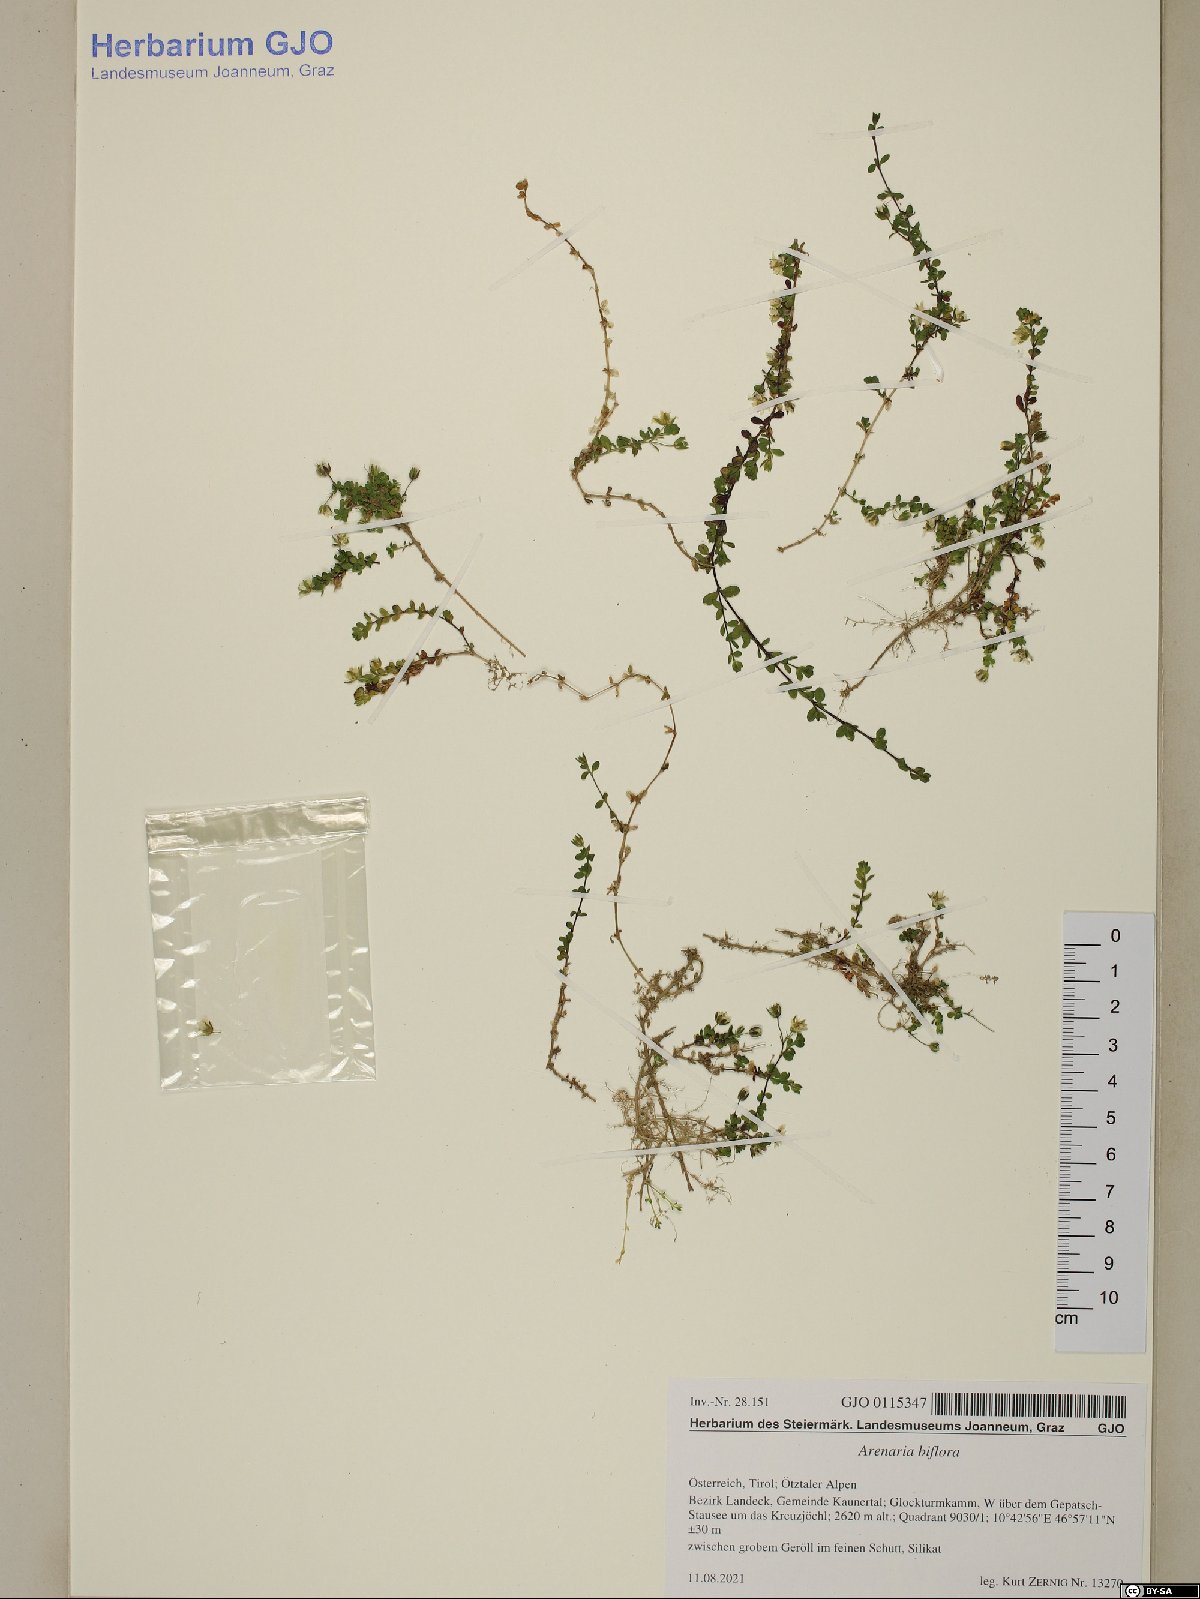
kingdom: Plantae
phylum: Tracheophyta
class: Magnoliopsida
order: Caryophyllales
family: Caryophyllaceae
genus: Arenaria
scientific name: Arenaria biflora
